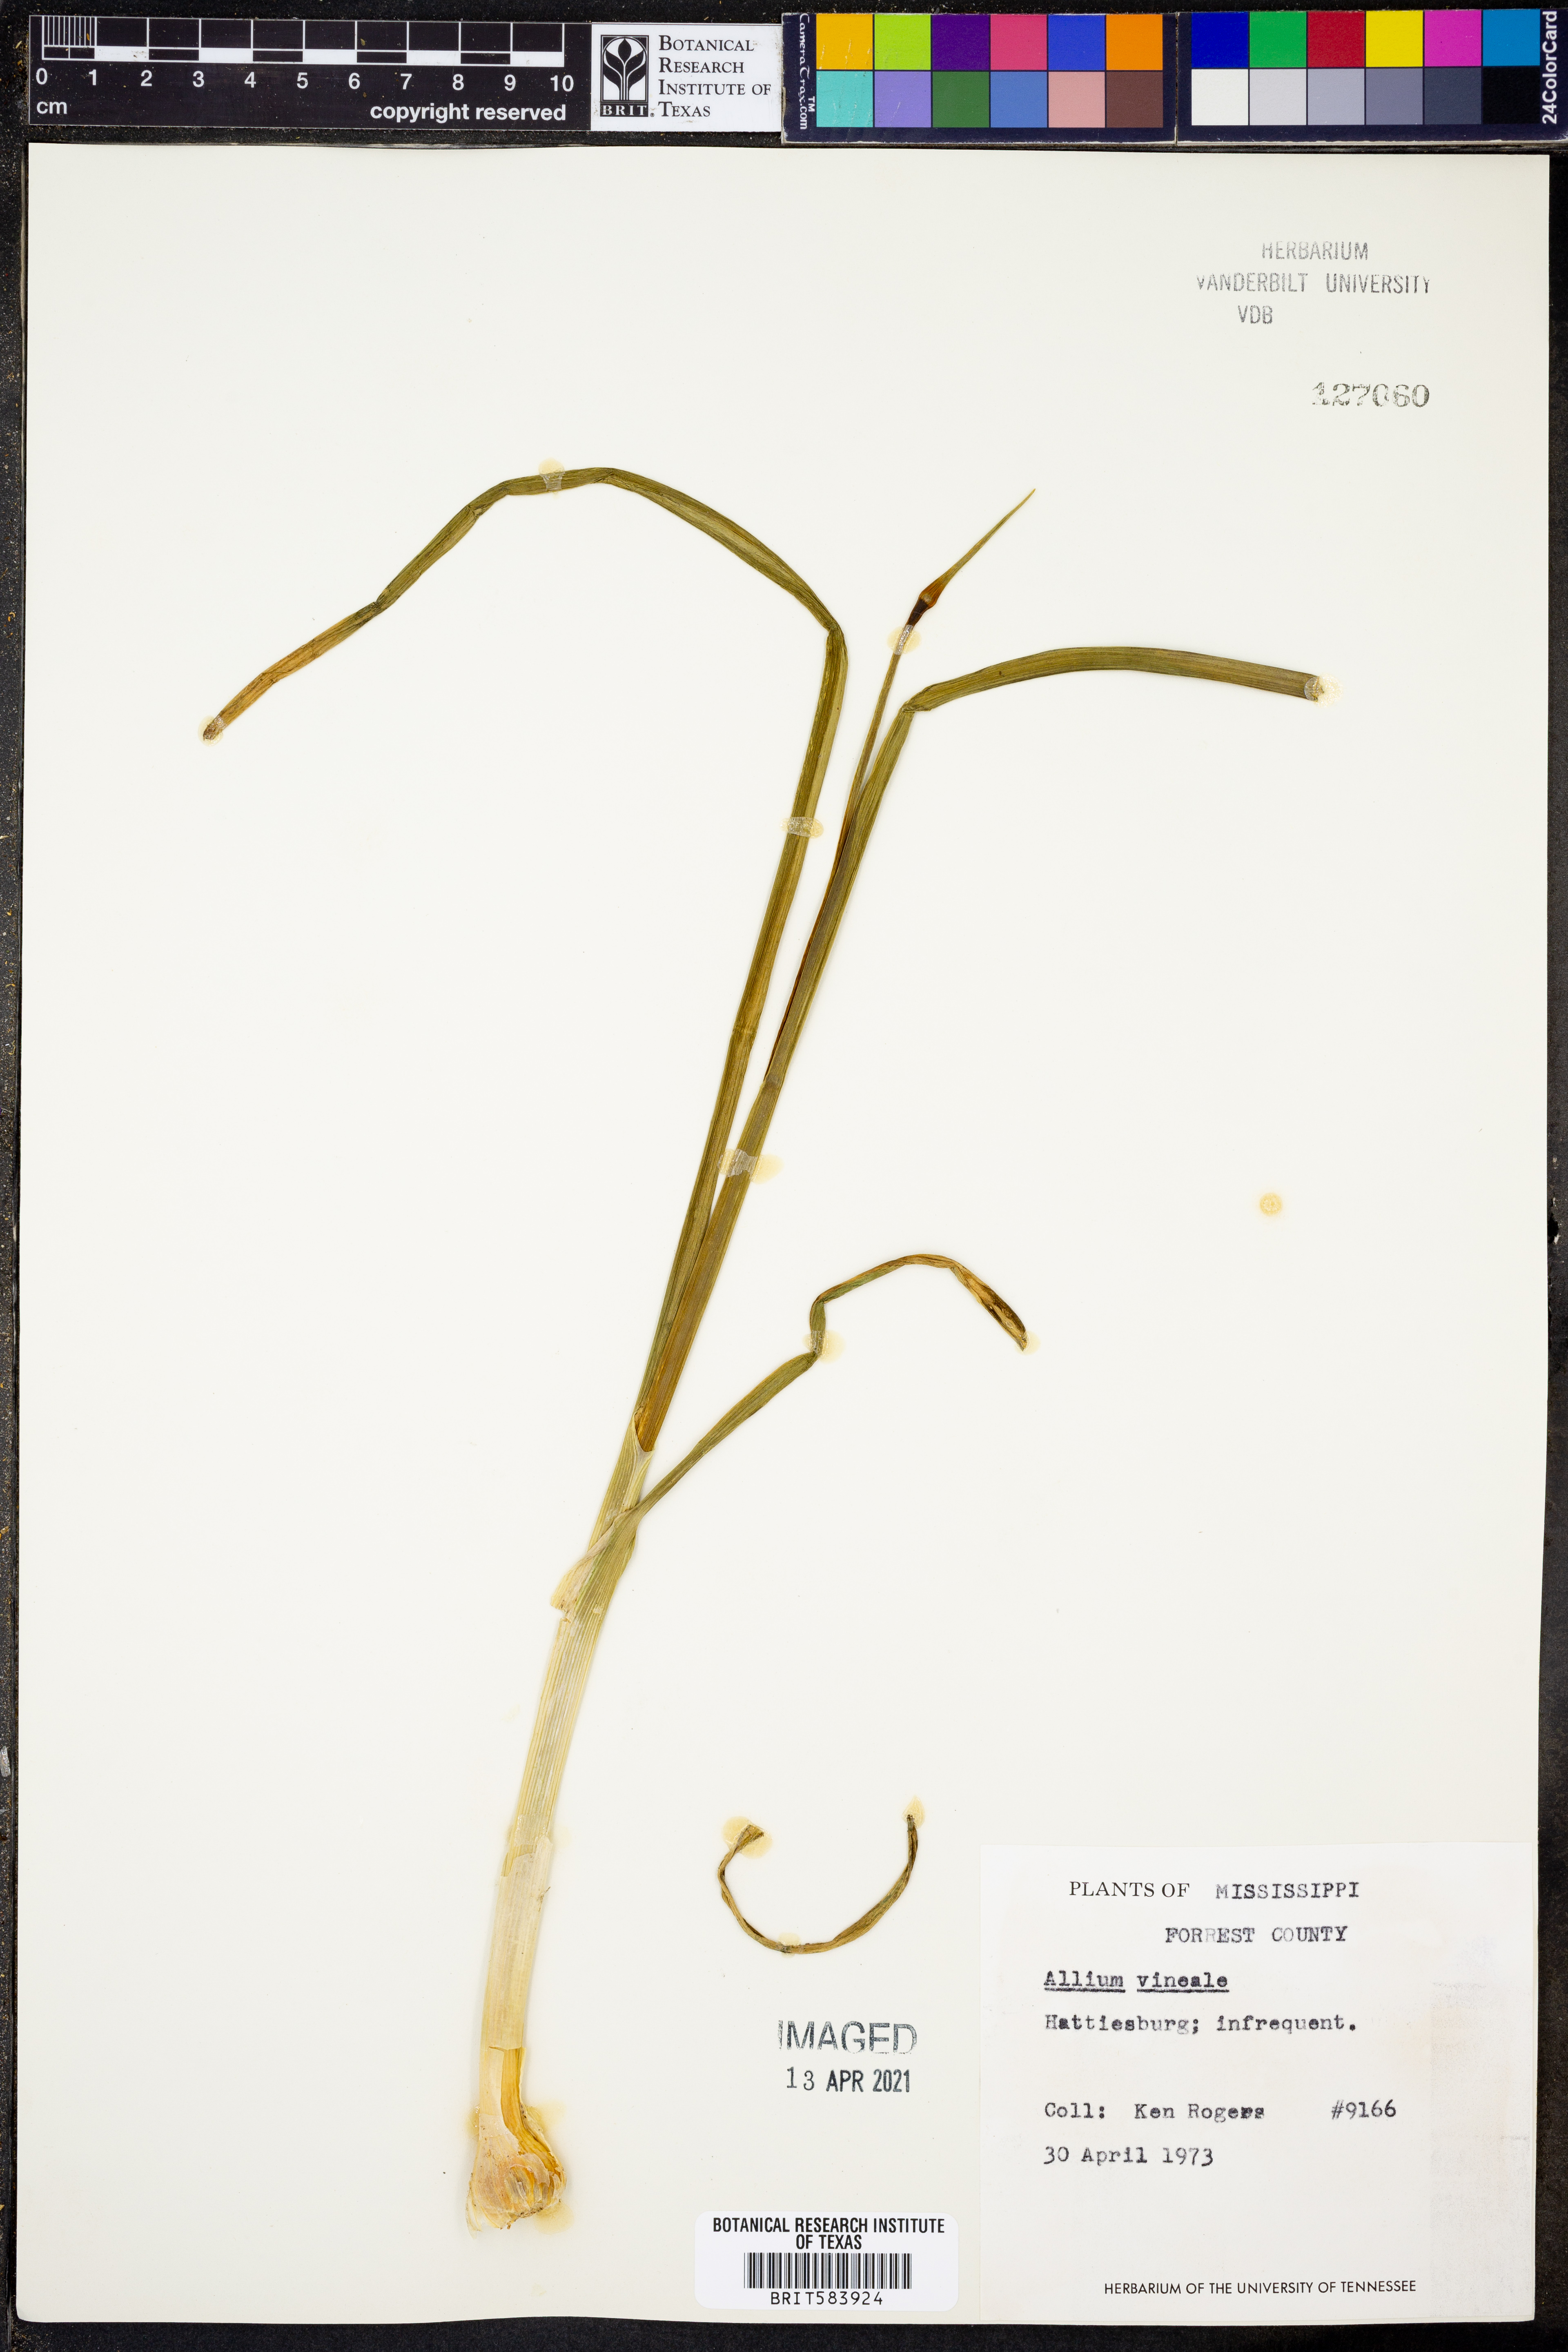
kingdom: Plantae
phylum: Tracheophyta
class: Liliopsida
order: Asparagales
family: Amaryllidaceae
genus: Allium
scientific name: Allium vineale
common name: Crow garlic
